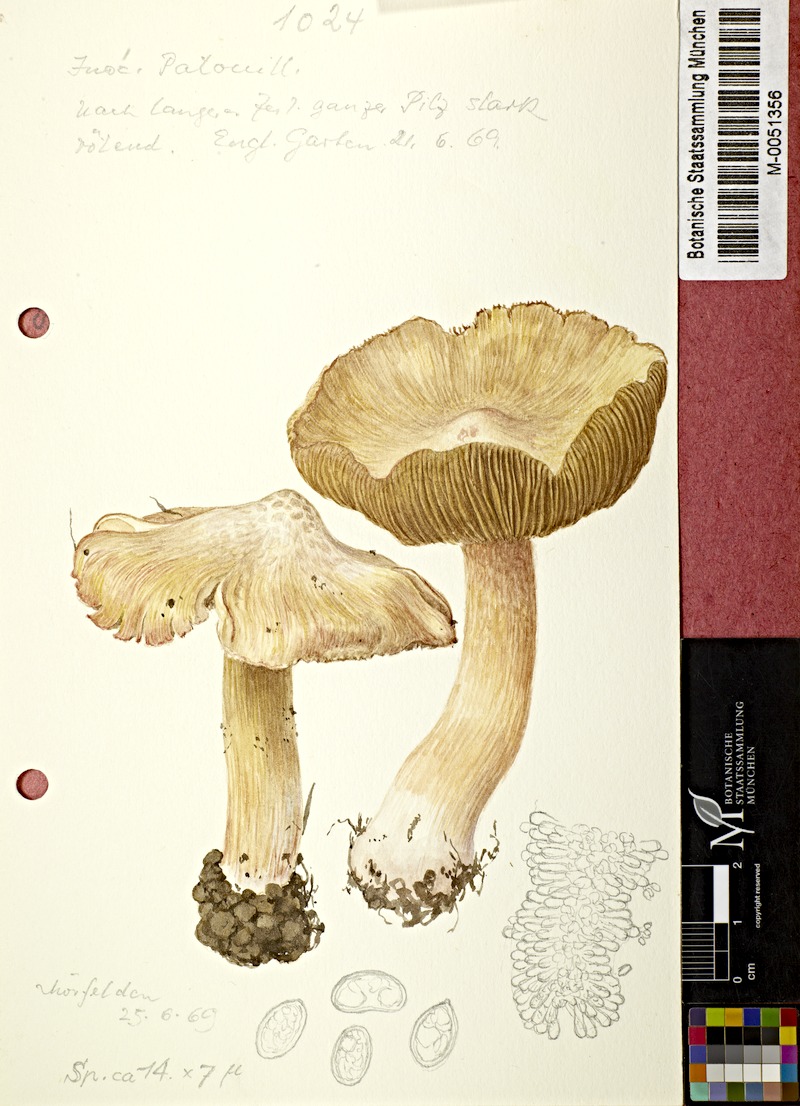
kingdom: Fungi
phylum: Basidiomycota
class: Agaricomycetes
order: Agaricales
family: Inocybaceae
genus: Inosperma
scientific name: Inosperma erubescens
